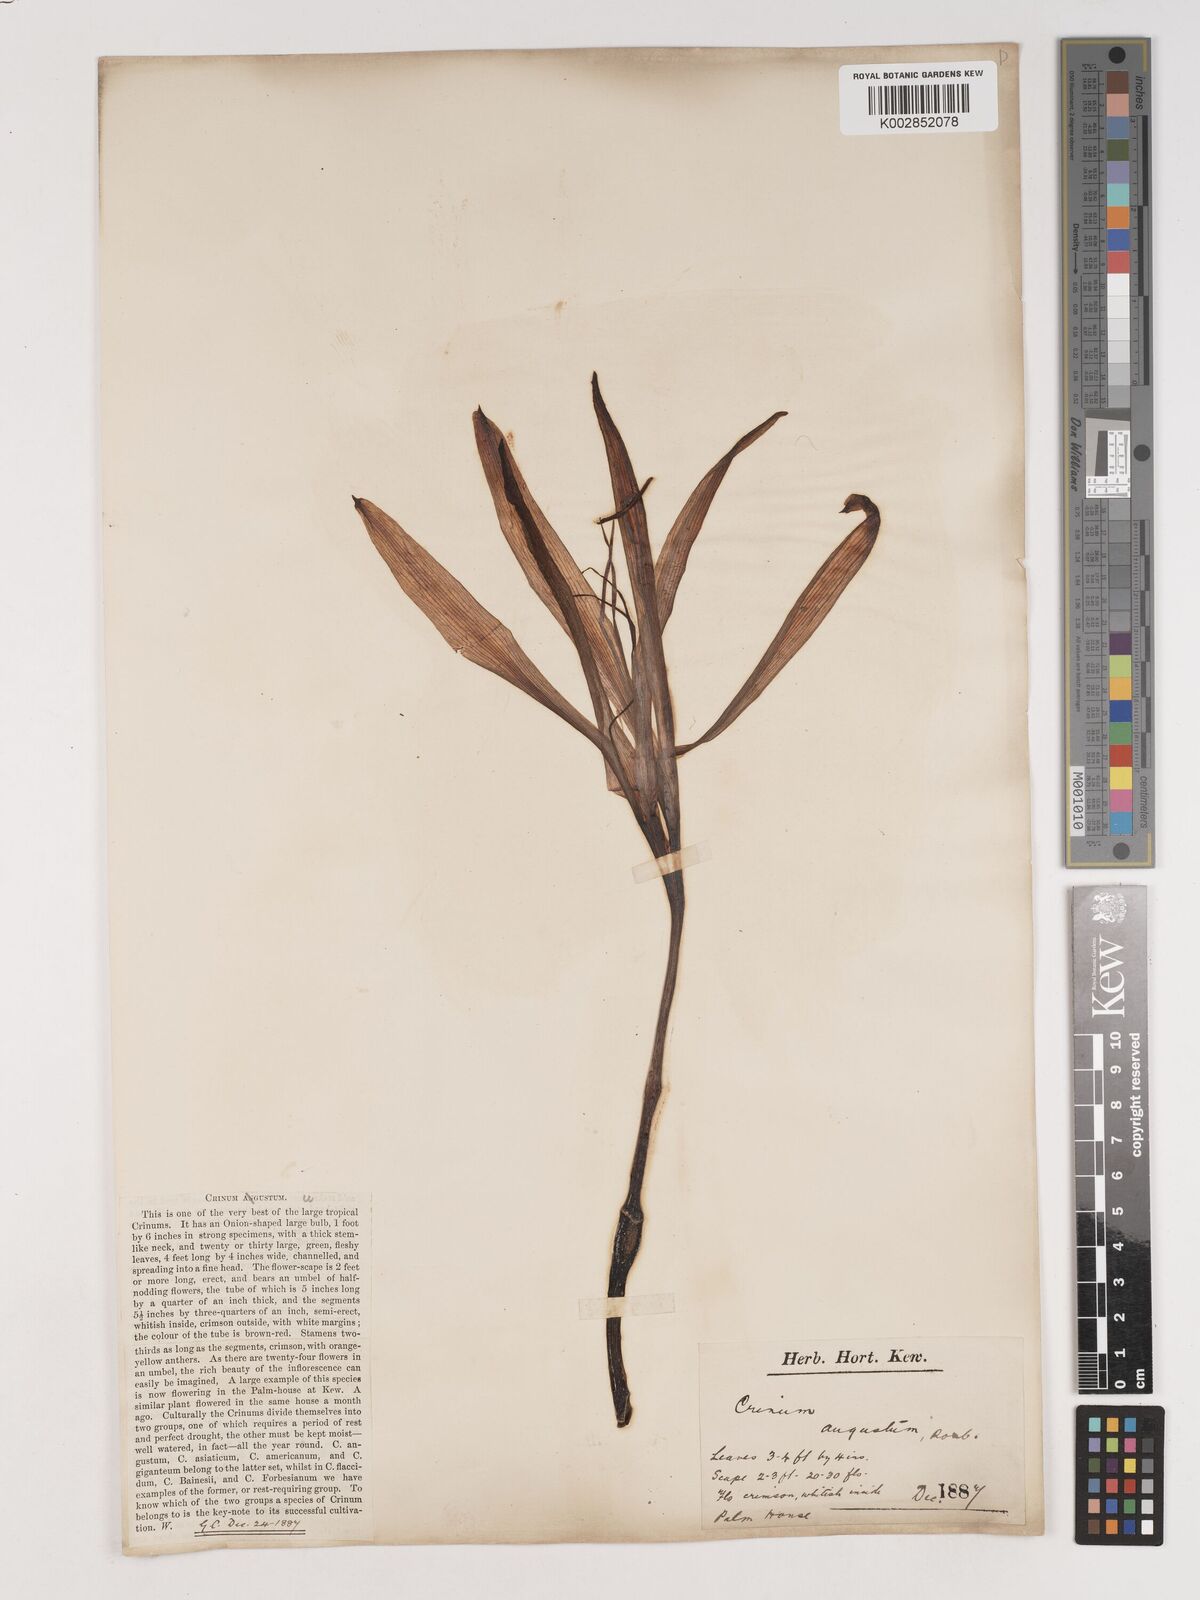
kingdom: Plantae
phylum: Tracheophyta
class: Liliopsida
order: Asparagales
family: Amaryllidaceae
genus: Crinum
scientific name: Crinum amabile
